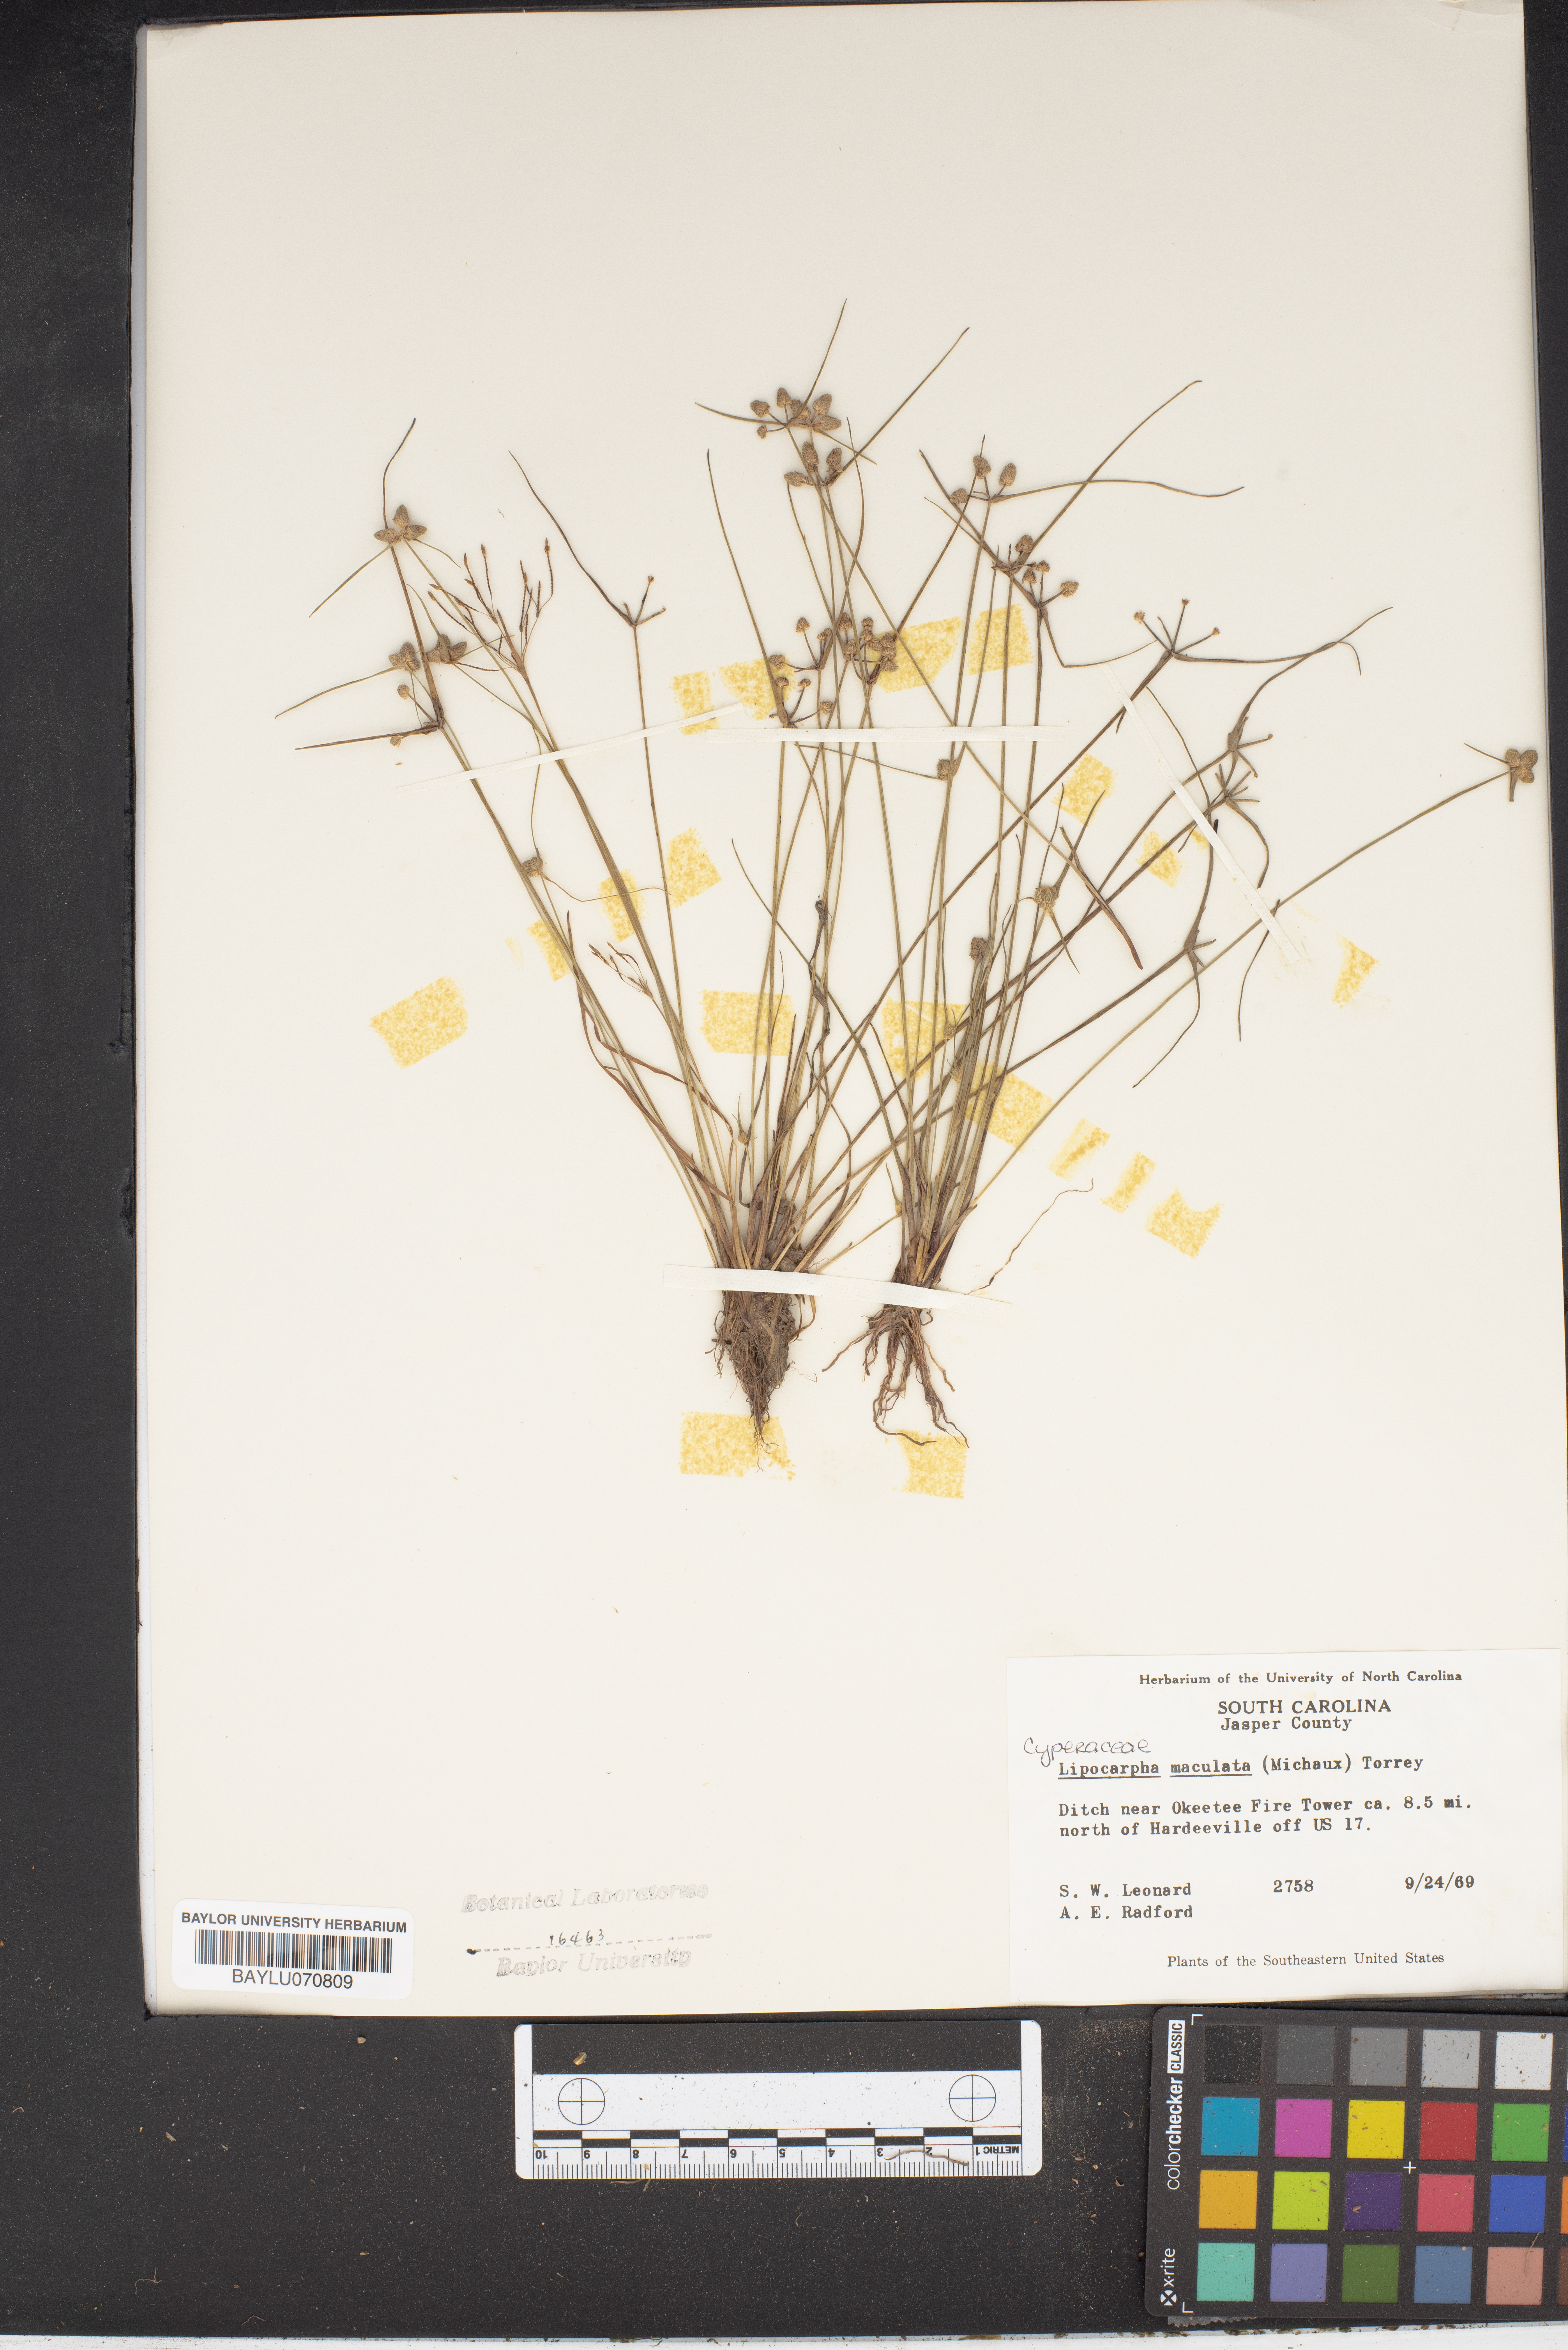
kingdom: Plantae
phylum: Tracheophyta
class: Liliopsida
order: Poales
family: Cyperaceae
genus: Cyperus
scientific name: Cyperus neotropicalis
